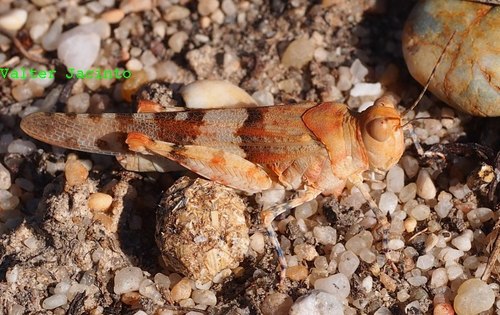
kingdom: Animalia
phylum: Arthropoda
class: Insecta
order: Orthoptera
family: Acrididae
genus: Sphingonotus
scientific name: Sphingonotus
